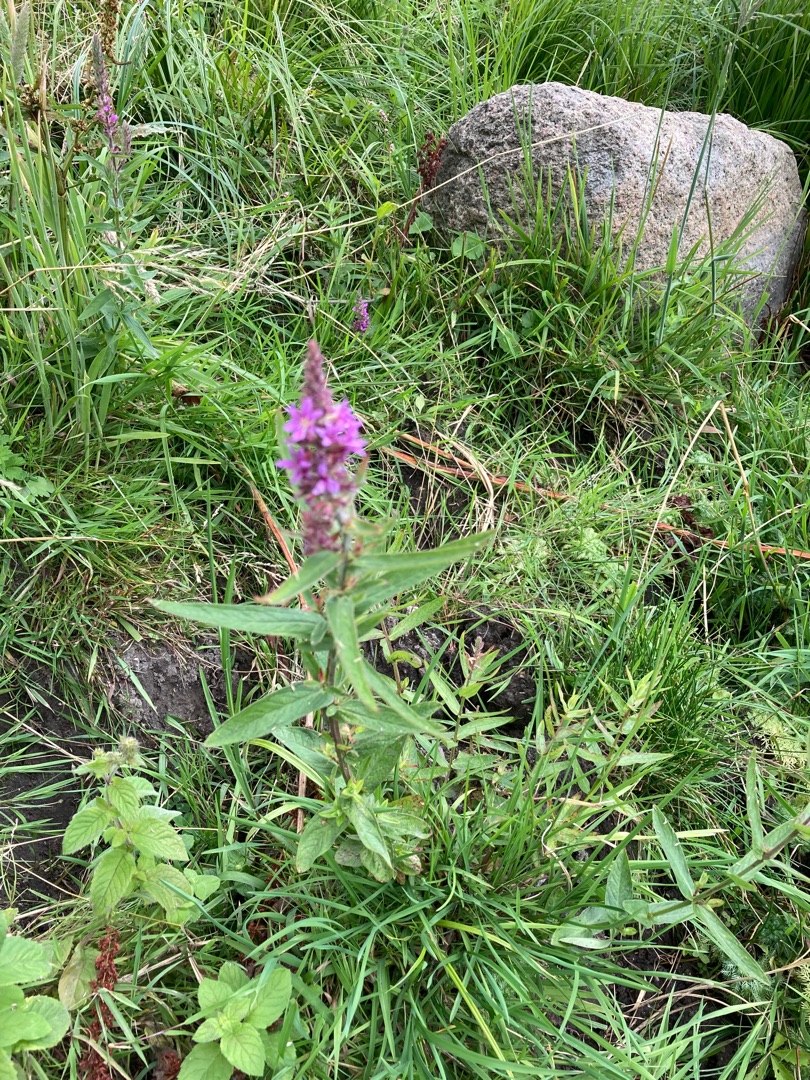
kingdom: Plantae
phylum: Tracheophyta
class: Magnoliopsida
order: Myrtales
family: Lythraceae
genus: Lythrum
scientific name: Lythrum salicaria
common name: Kattehale
